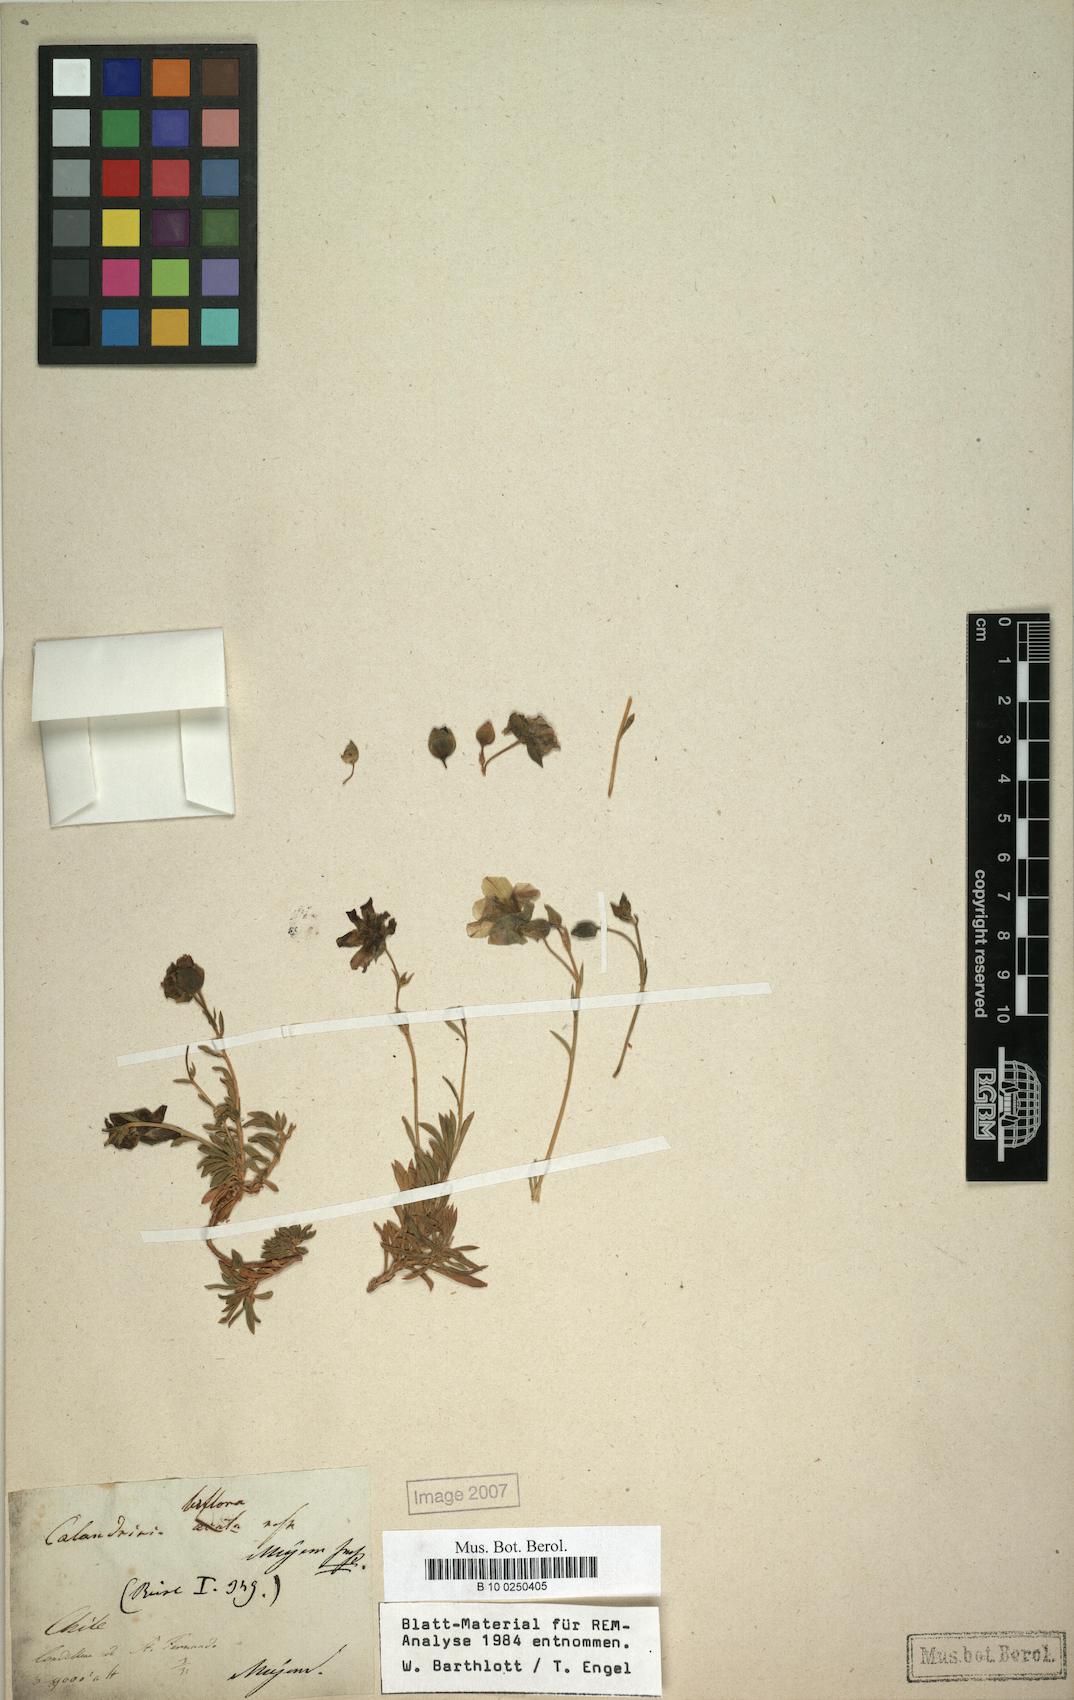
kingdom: Plantae
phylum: Tracheophyta
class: Magnoliopsida
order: Caryophyllales
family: Montiaceae
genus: Montiopsis
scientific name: Montiopsis cistiflora
